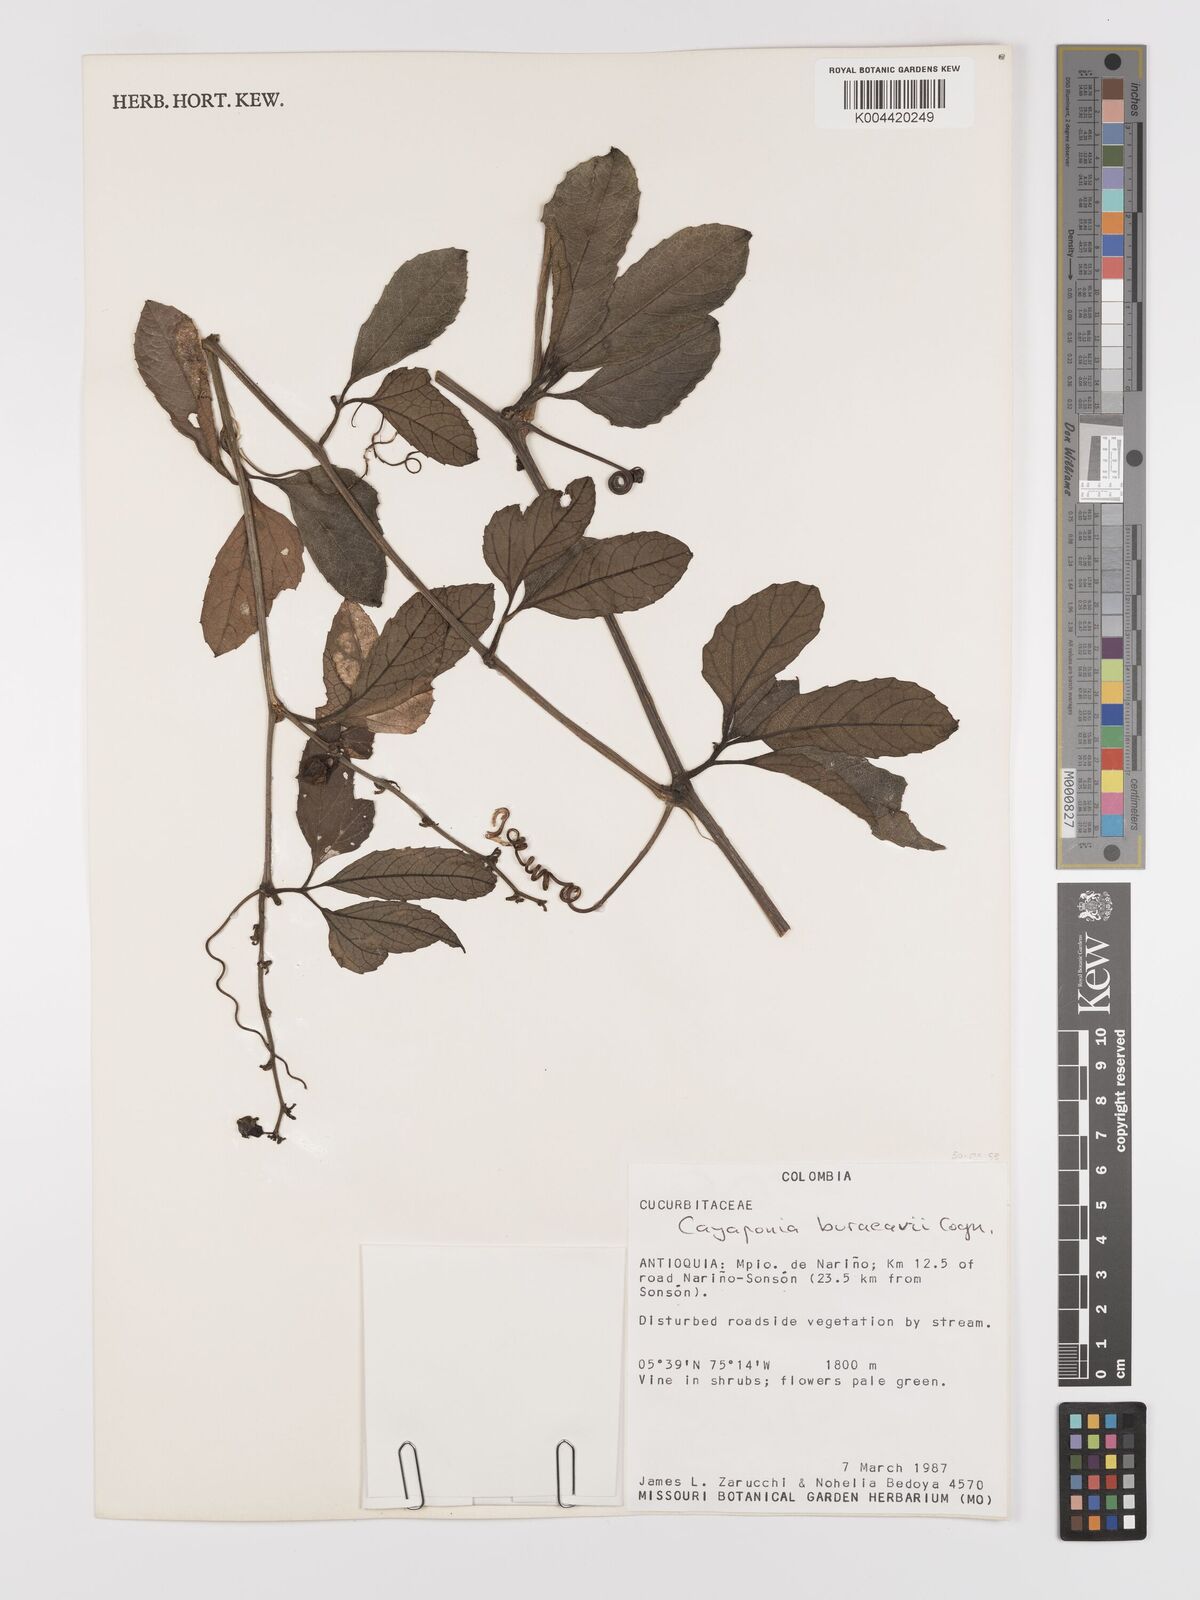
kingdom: Plantae
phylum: Tracheophyta
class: Magnoliopsida
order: Cucurbitales
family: Cucurbitaceae
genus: Cayaponia
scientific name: Cayaponia buraeavii
